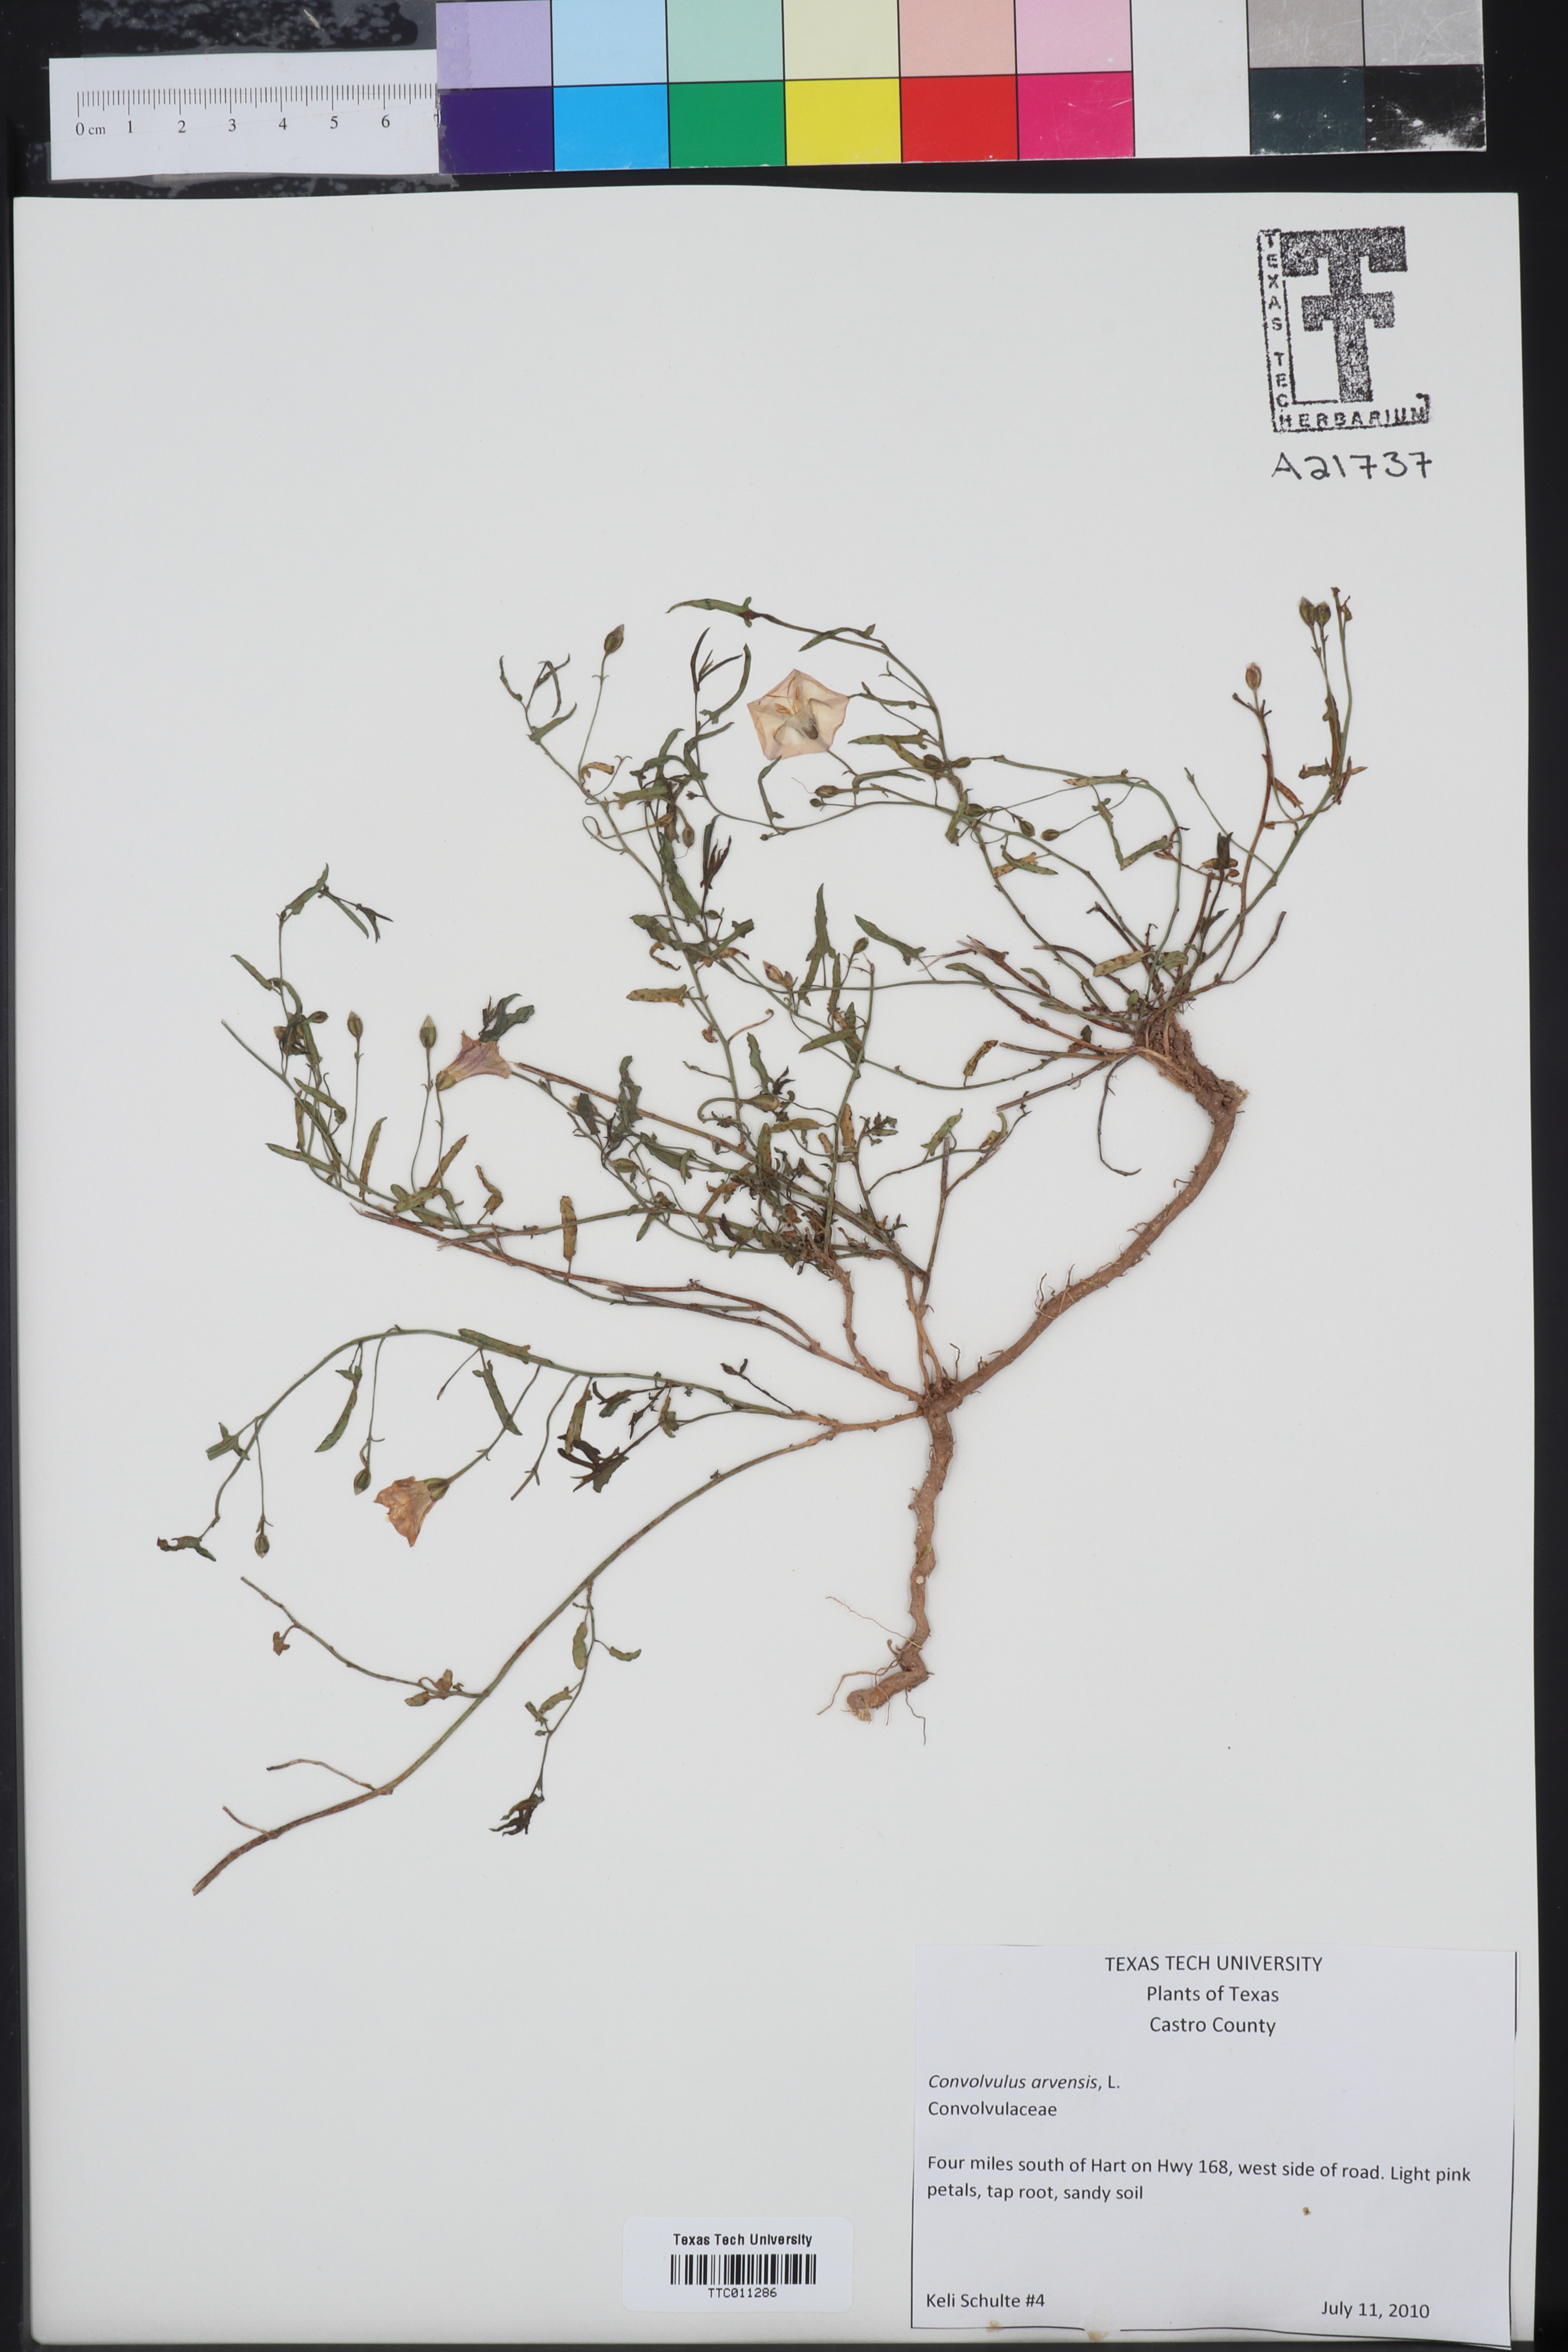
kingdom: Plantae
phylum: Tracheophyta
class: Magnoliopsida
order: Solanales
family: Convolvulaceae
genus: Convolvulus
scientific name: Convolvulus arvensis
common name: Field bindweed
